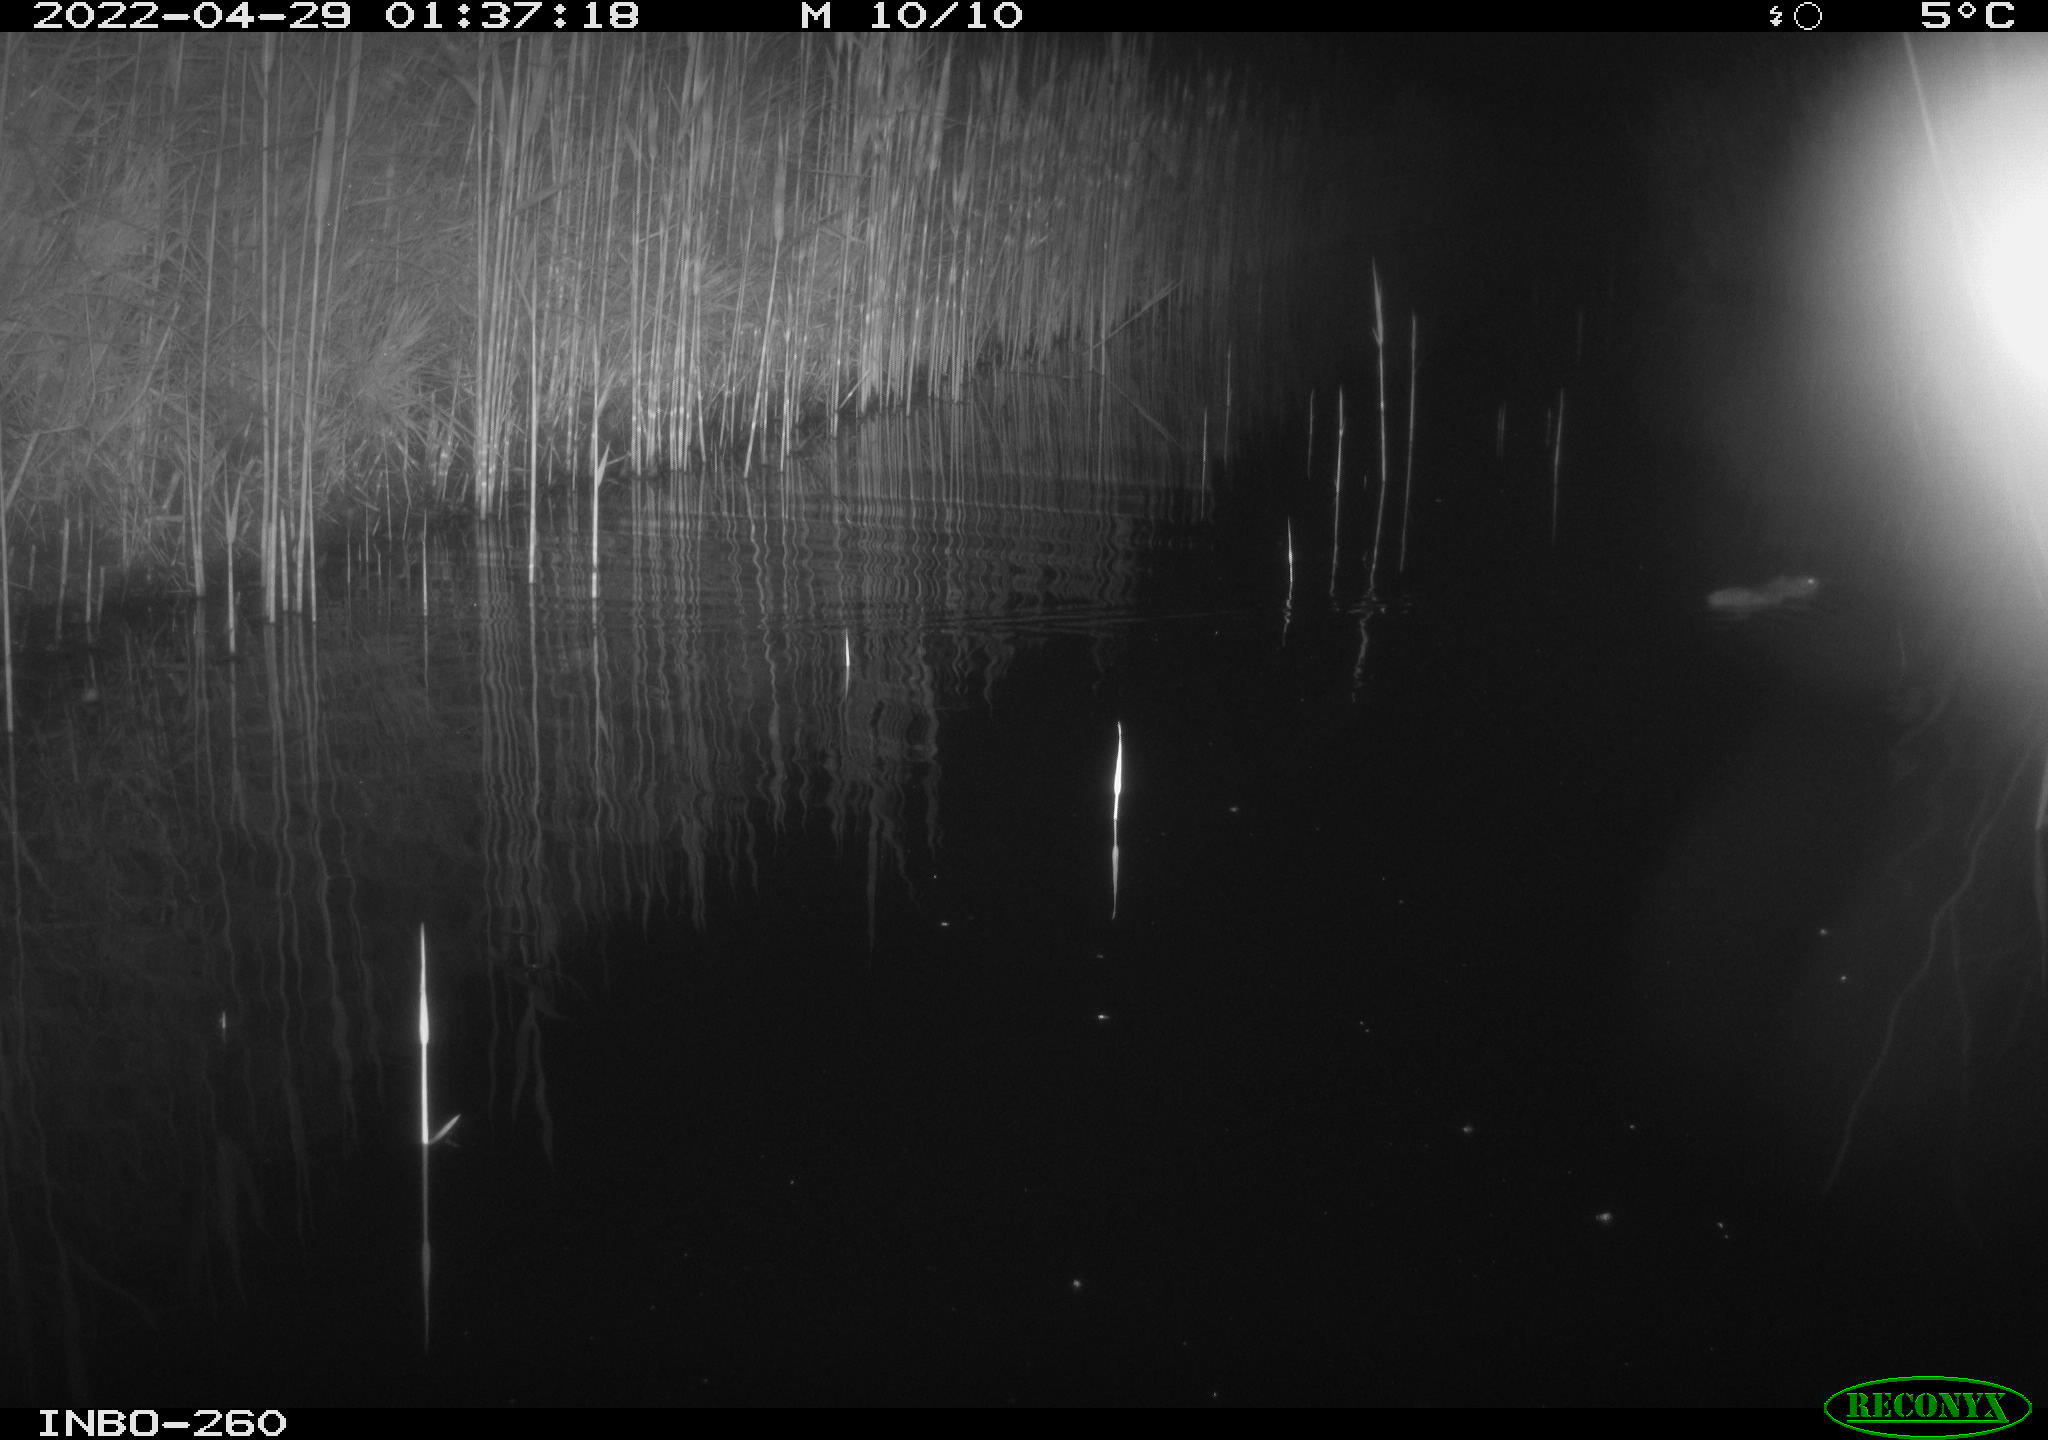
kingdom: Animalia
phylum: Chordata
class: Mammalia
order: Rodentia
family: Muridae
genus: Rattus
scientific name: Rattus norvegicus
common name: Brown rat
